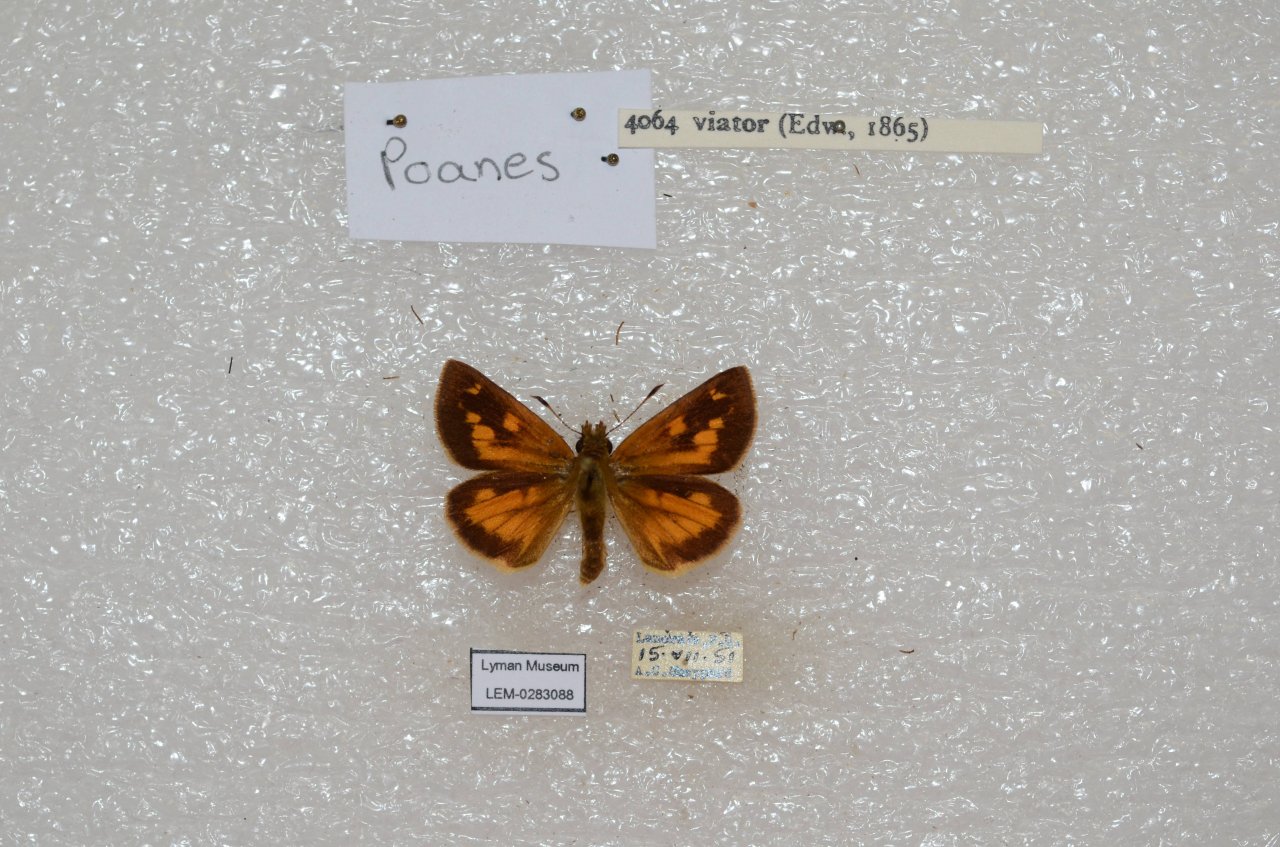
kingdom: Animalia
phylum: Arthropoda
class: Insecta
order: Lepidoptera
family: Hesperiidae
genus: Poanes
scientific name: Poanes viator
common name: Broad-winged Skipper
